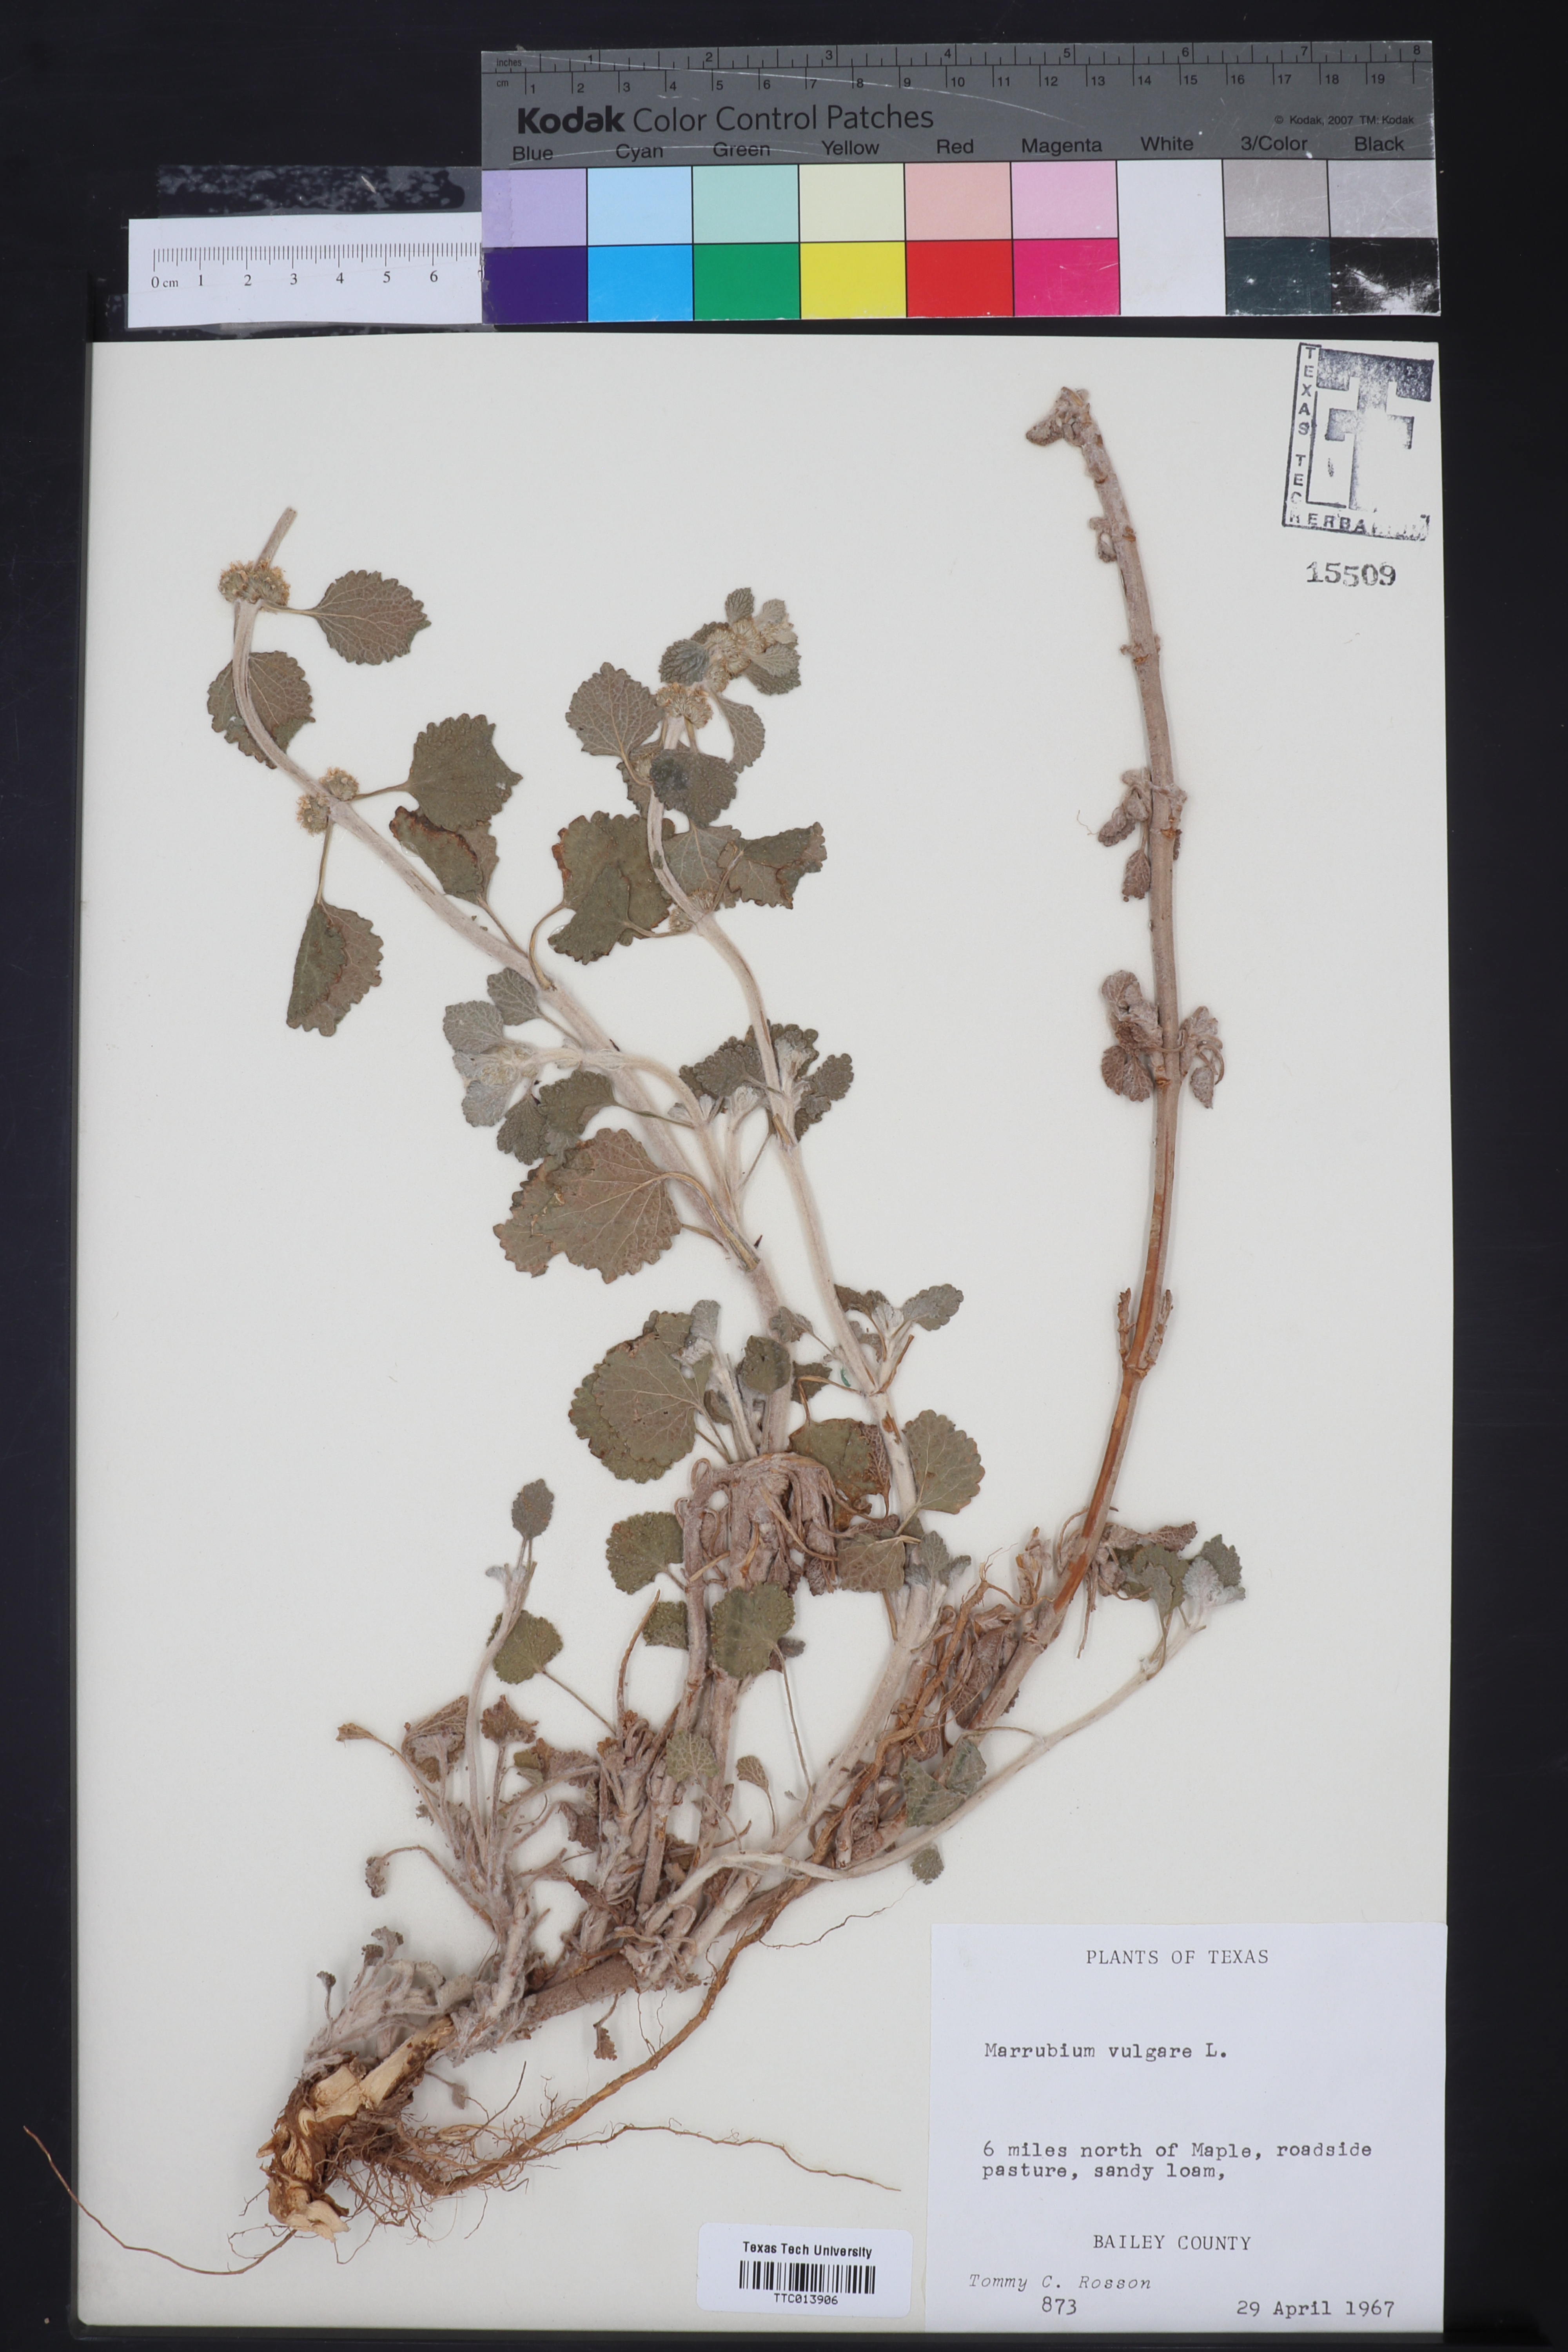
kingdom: Plantae
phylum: Tracheophyta
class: Magnoliopsida
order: Lamiales
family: Lamiaceae
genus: Marrubium
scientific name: Marrubium vulgare
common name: Horehound
